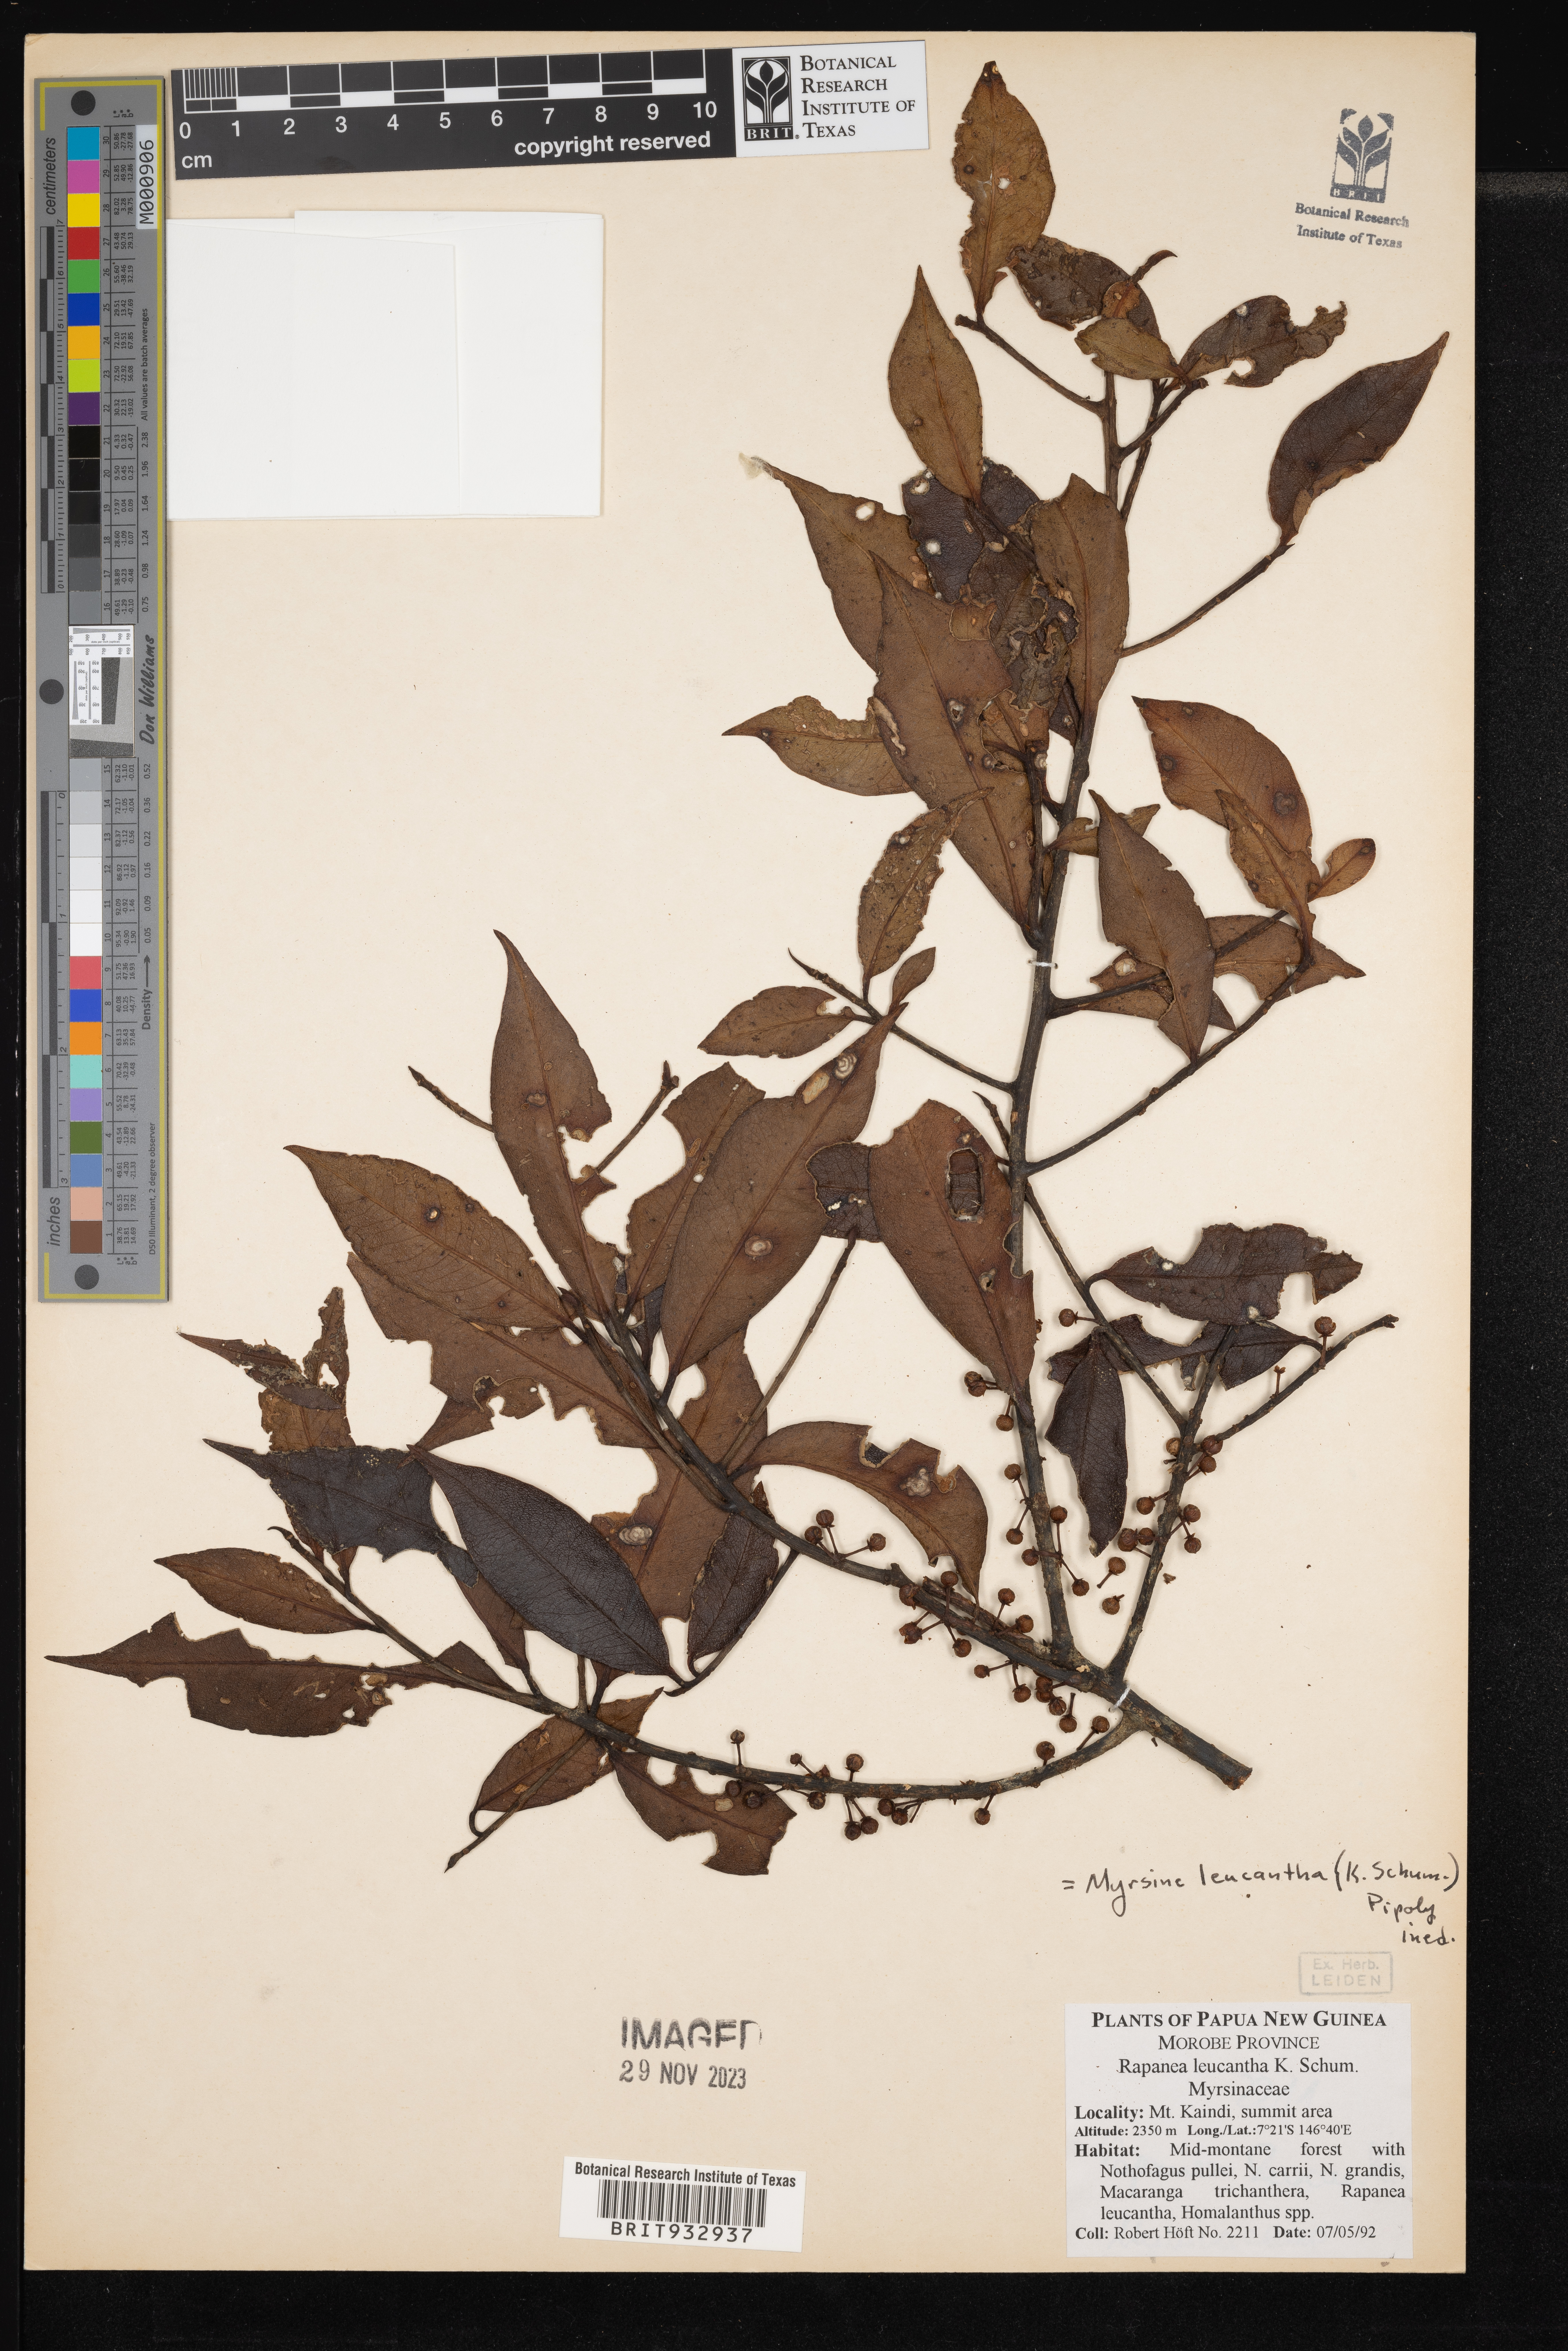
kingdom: Plantae
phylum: Tracheophyta
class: Magnoliopsida
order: Ericales
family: Primulaceae
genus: Myrsine
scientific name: Myrsine
